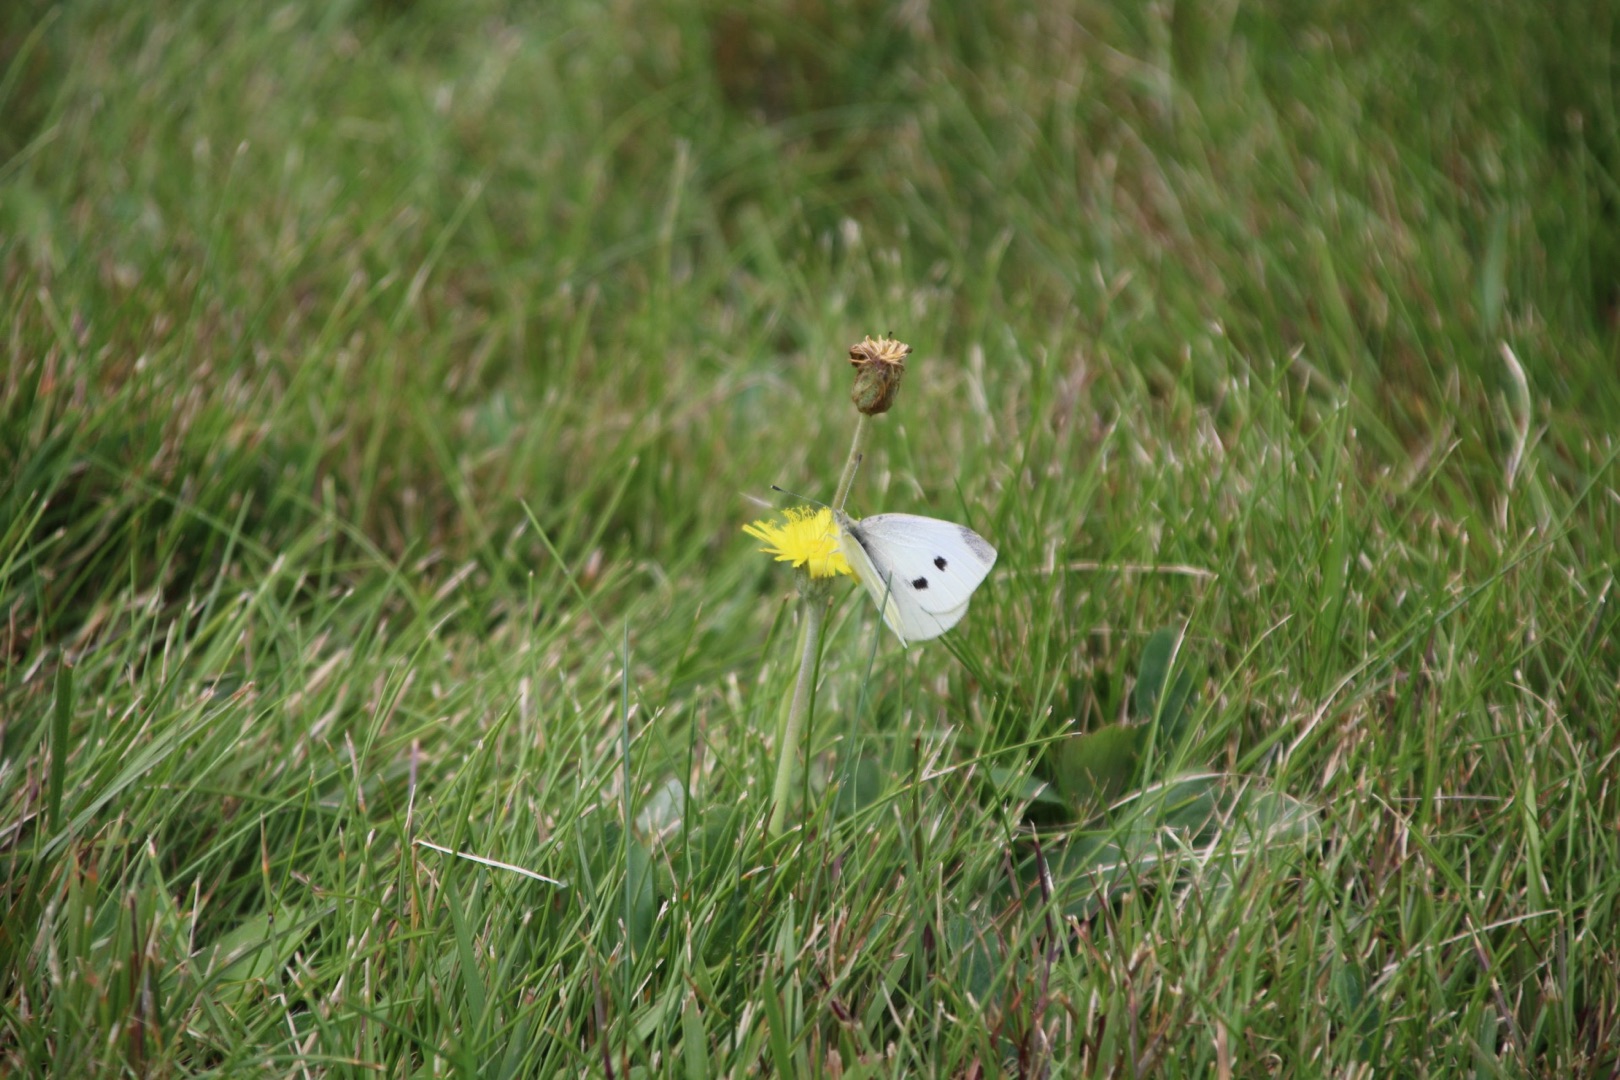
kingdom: Animalia
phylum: Arthropoda
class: Insecta
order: Lepidoptera
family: Pieridae
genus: Pieris
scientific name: Pieris rapae
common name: Lille kålsommerfugl
